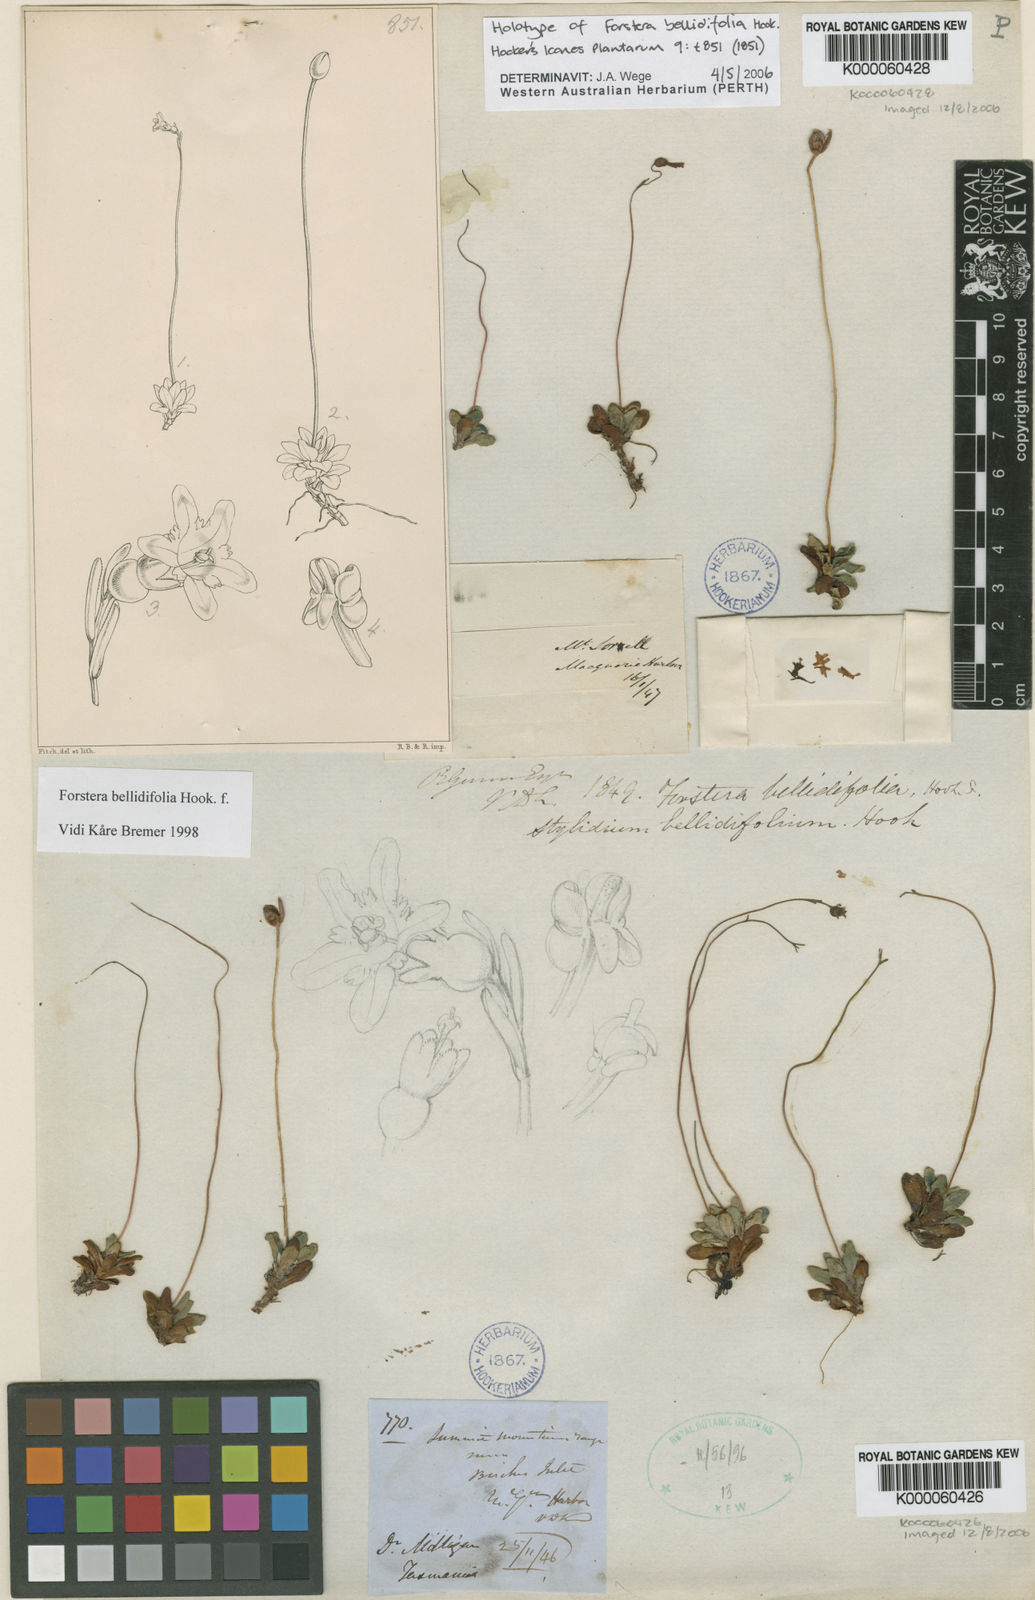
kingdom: Plantae
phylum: Tracheophyta
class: Magnoliopsida
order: Asterales
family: Stylidiaceae
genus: Forstera
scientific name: Forstera bellidifolia
